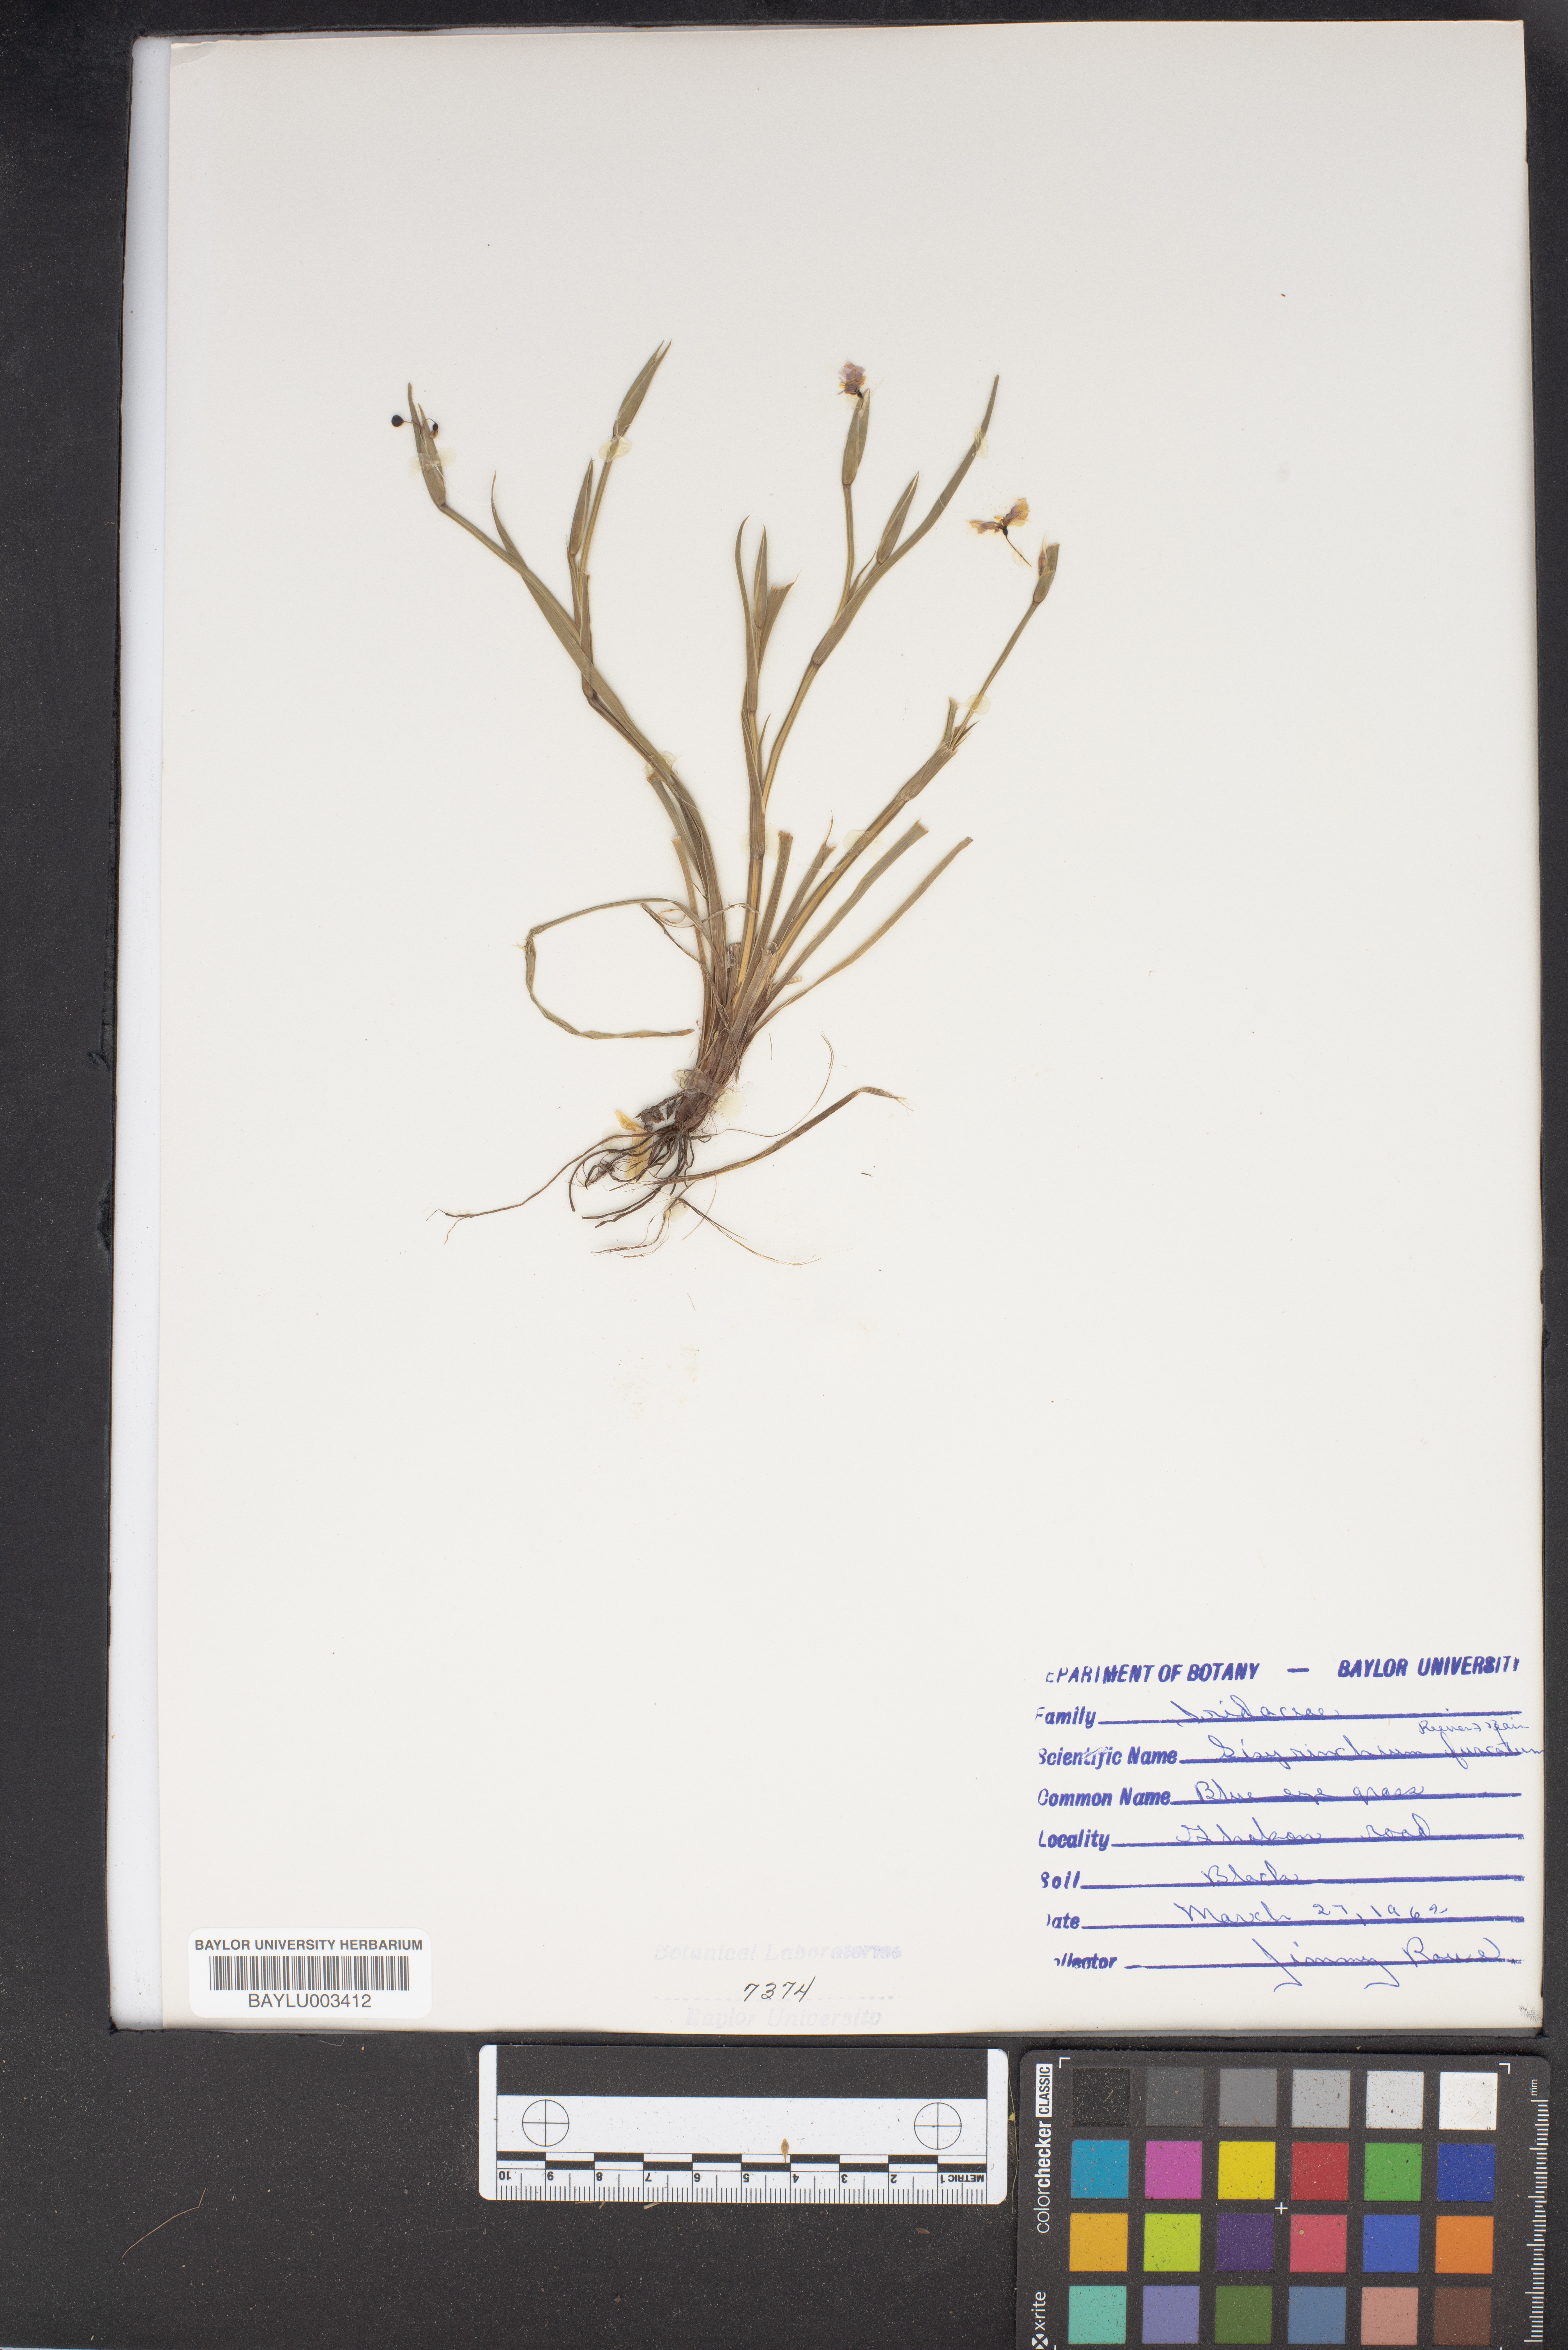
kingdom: Plantae
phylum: Tracheophyta
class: Liliopsida
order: Asparagales
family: Iridaceae
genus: Sisyrinchium
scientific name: Sisyrinchium fuscatum
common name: Coastal plain blue-eyed-grass
